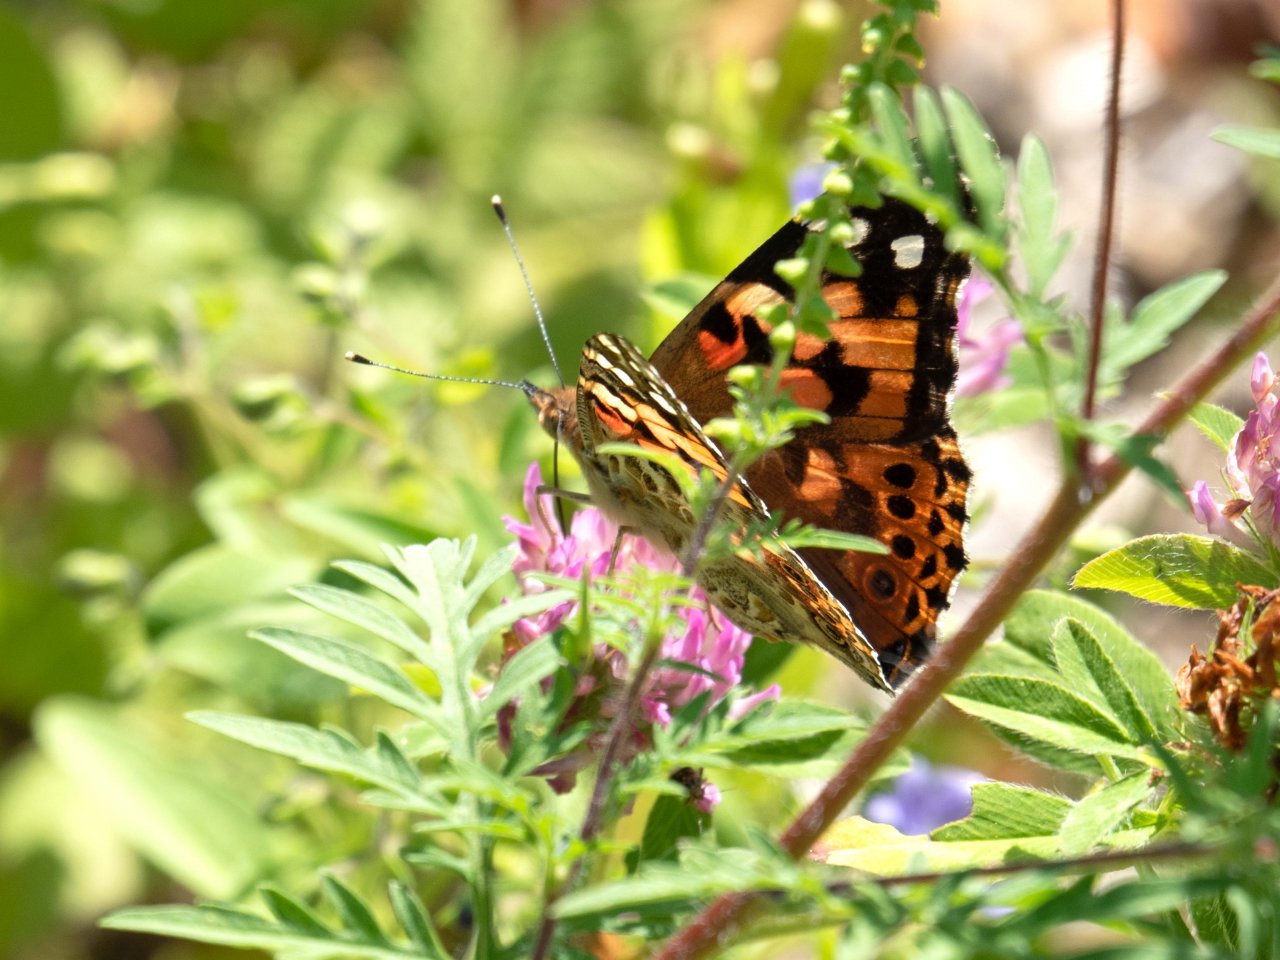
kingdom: Animalia
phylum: Arthropoda
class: Insecta
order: Lepidoptera
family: Nymphalidae
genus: Vanessa
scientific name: Vanessa cardui
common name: Painted Lady
